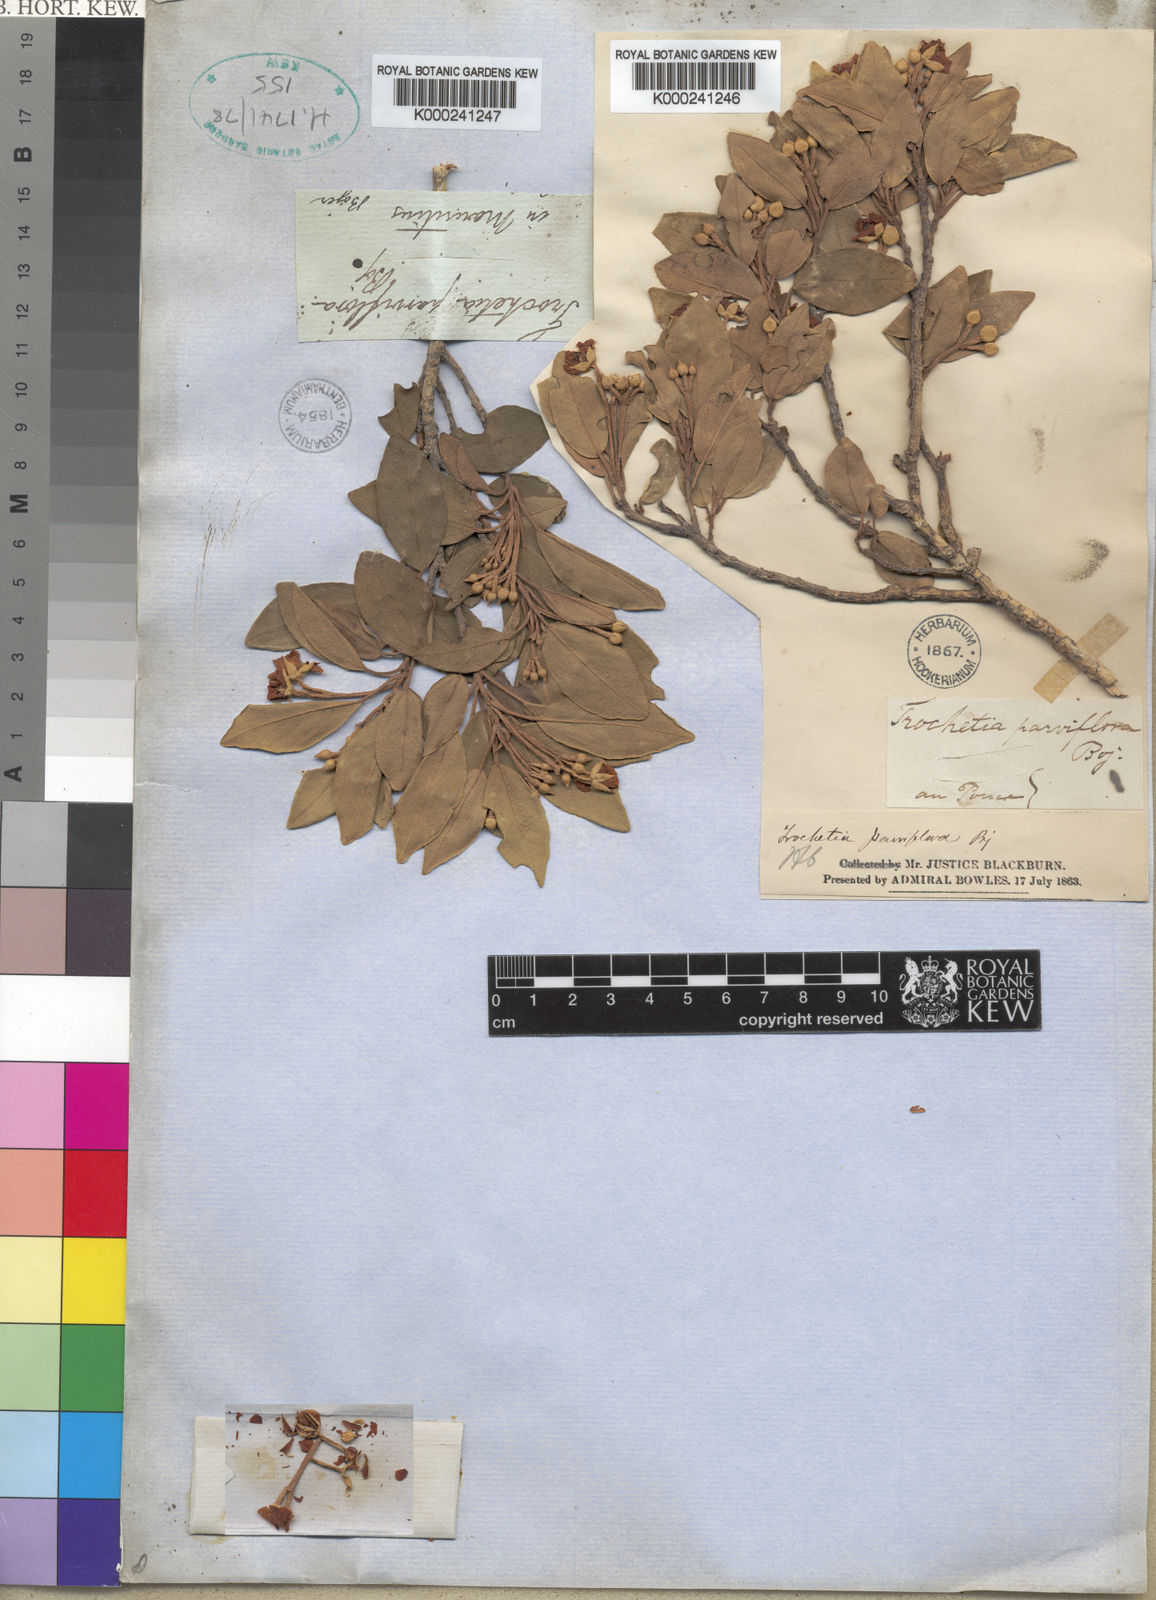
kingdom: Plantae
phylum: Tracheophyta
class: Magnoliopsida
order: Malvales
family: Malvaceae
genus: Ruizia
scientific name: Ruizia
